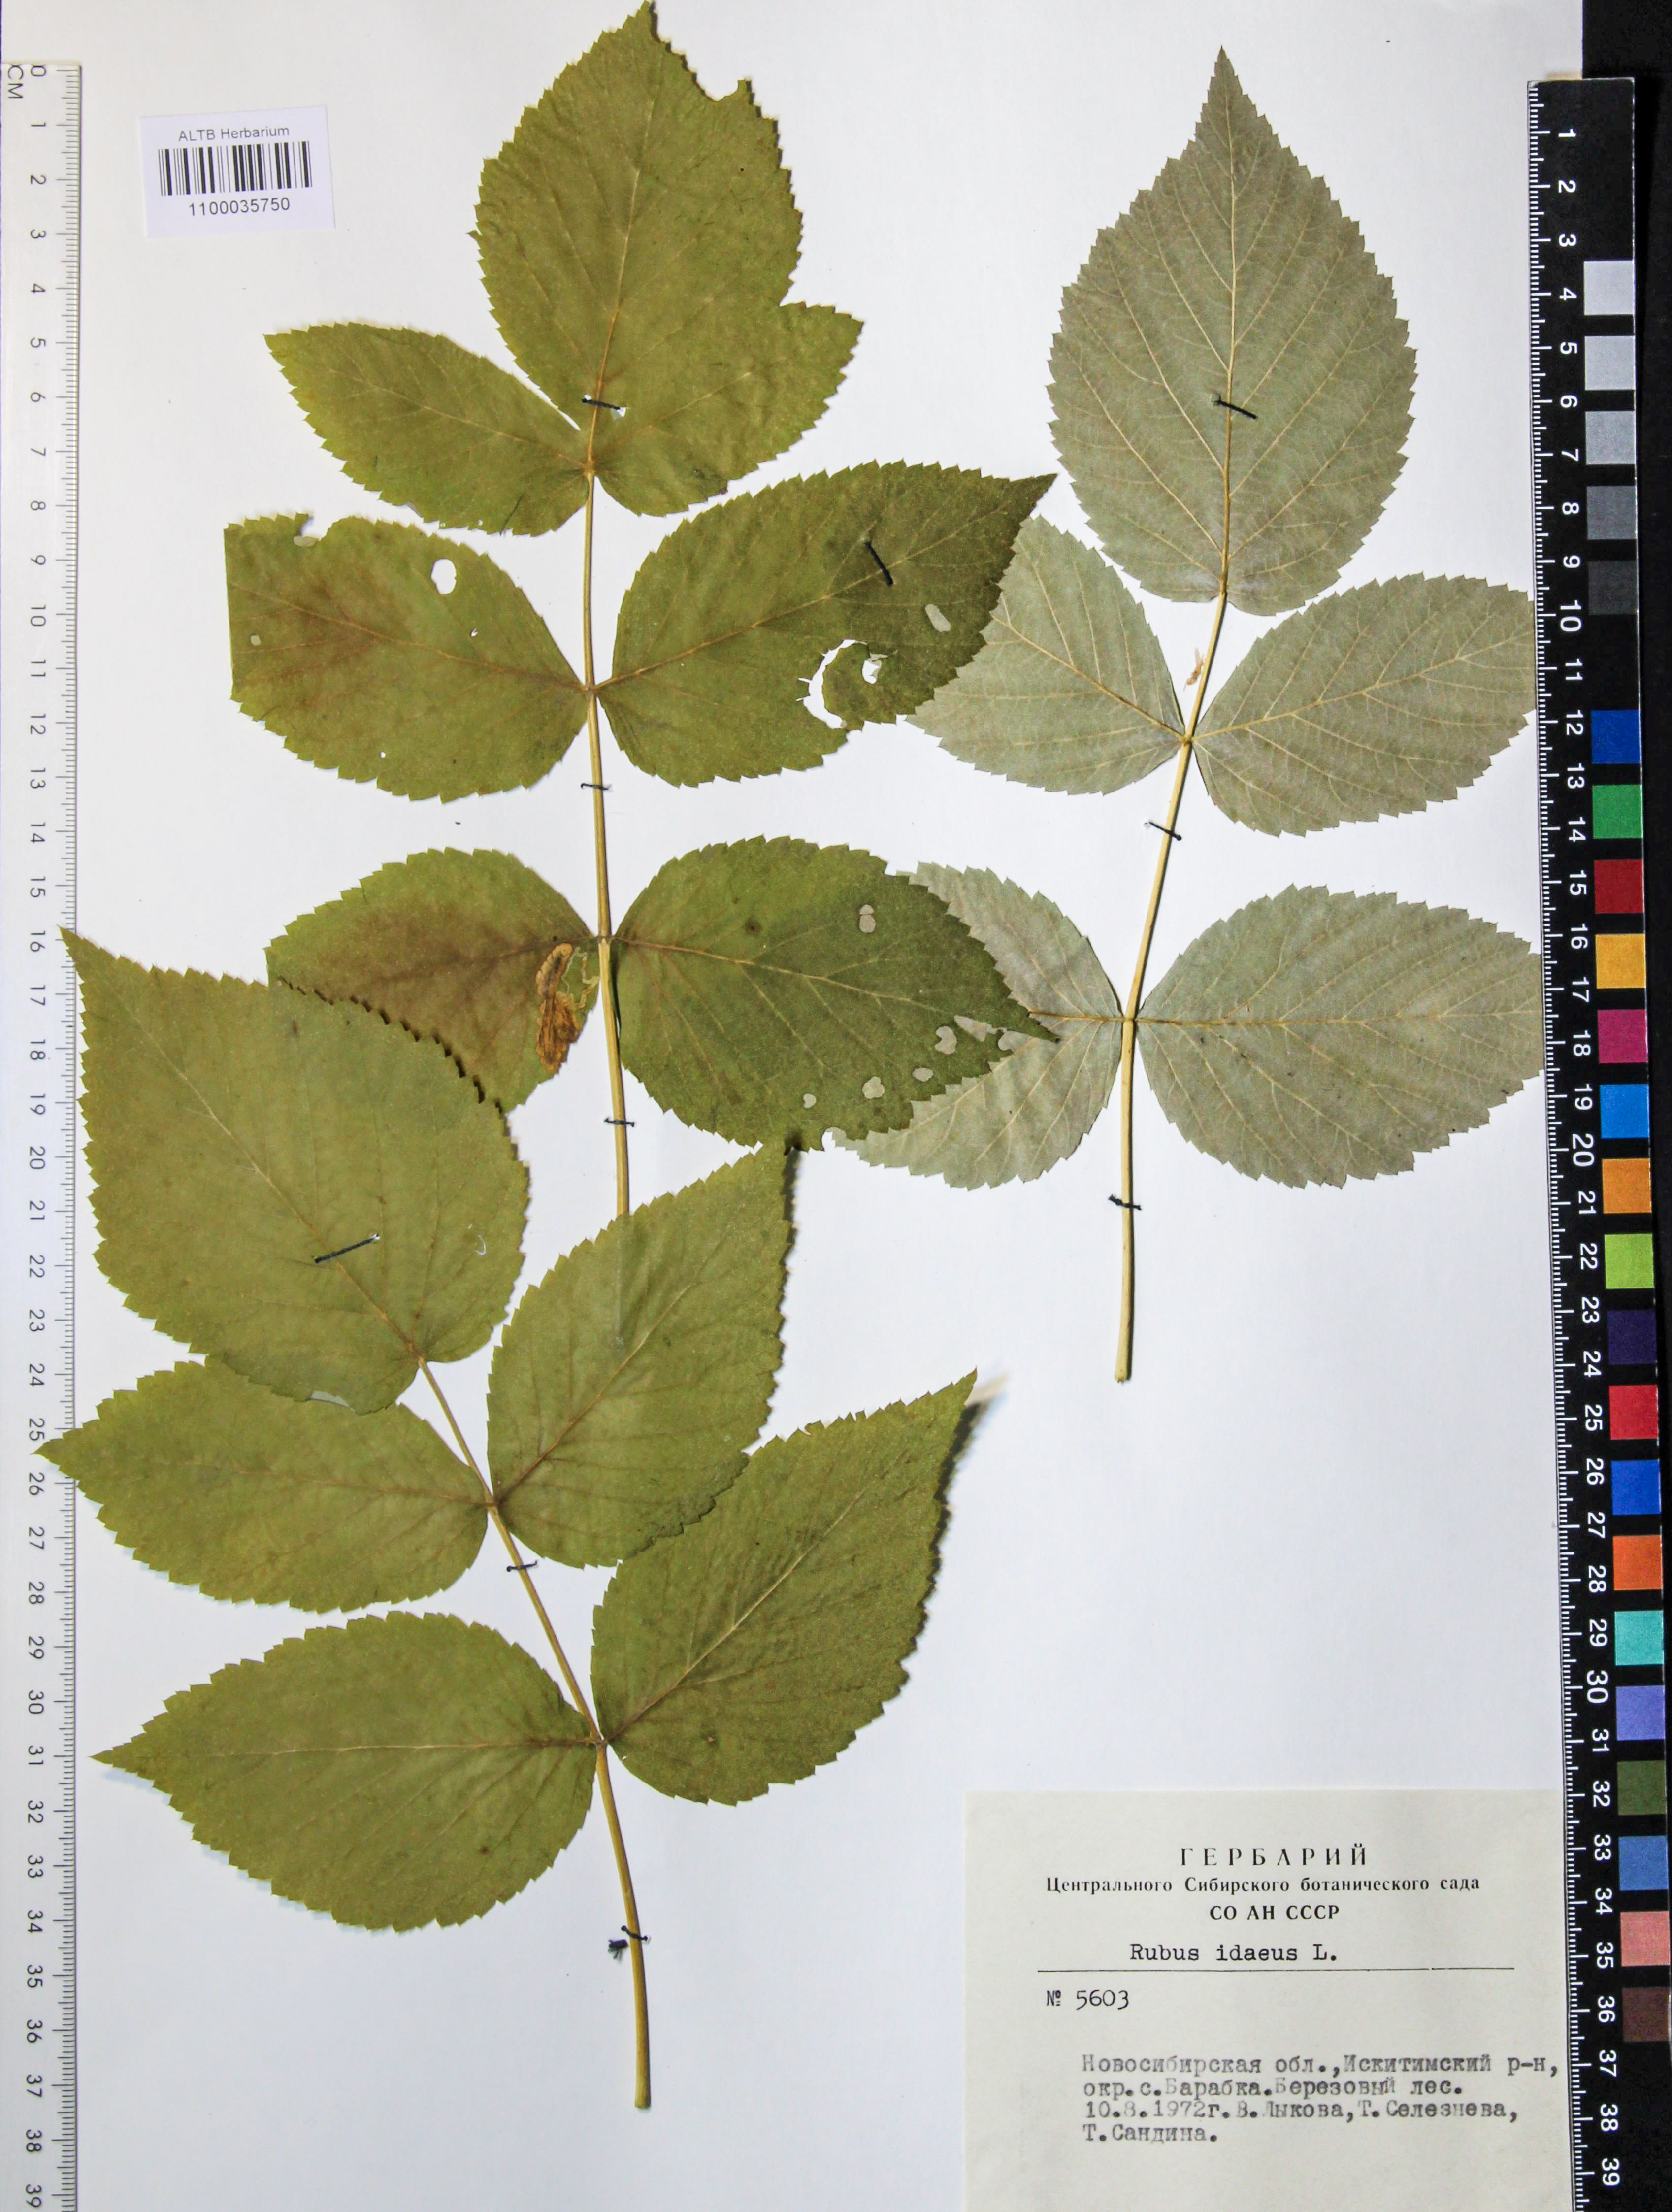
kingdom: Plantae
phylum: Tracheophyta
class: Magnoliopsida
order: Rosales
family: Rosaceae
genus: Rubus
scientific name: Rubus idaeus
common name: Raspberry
